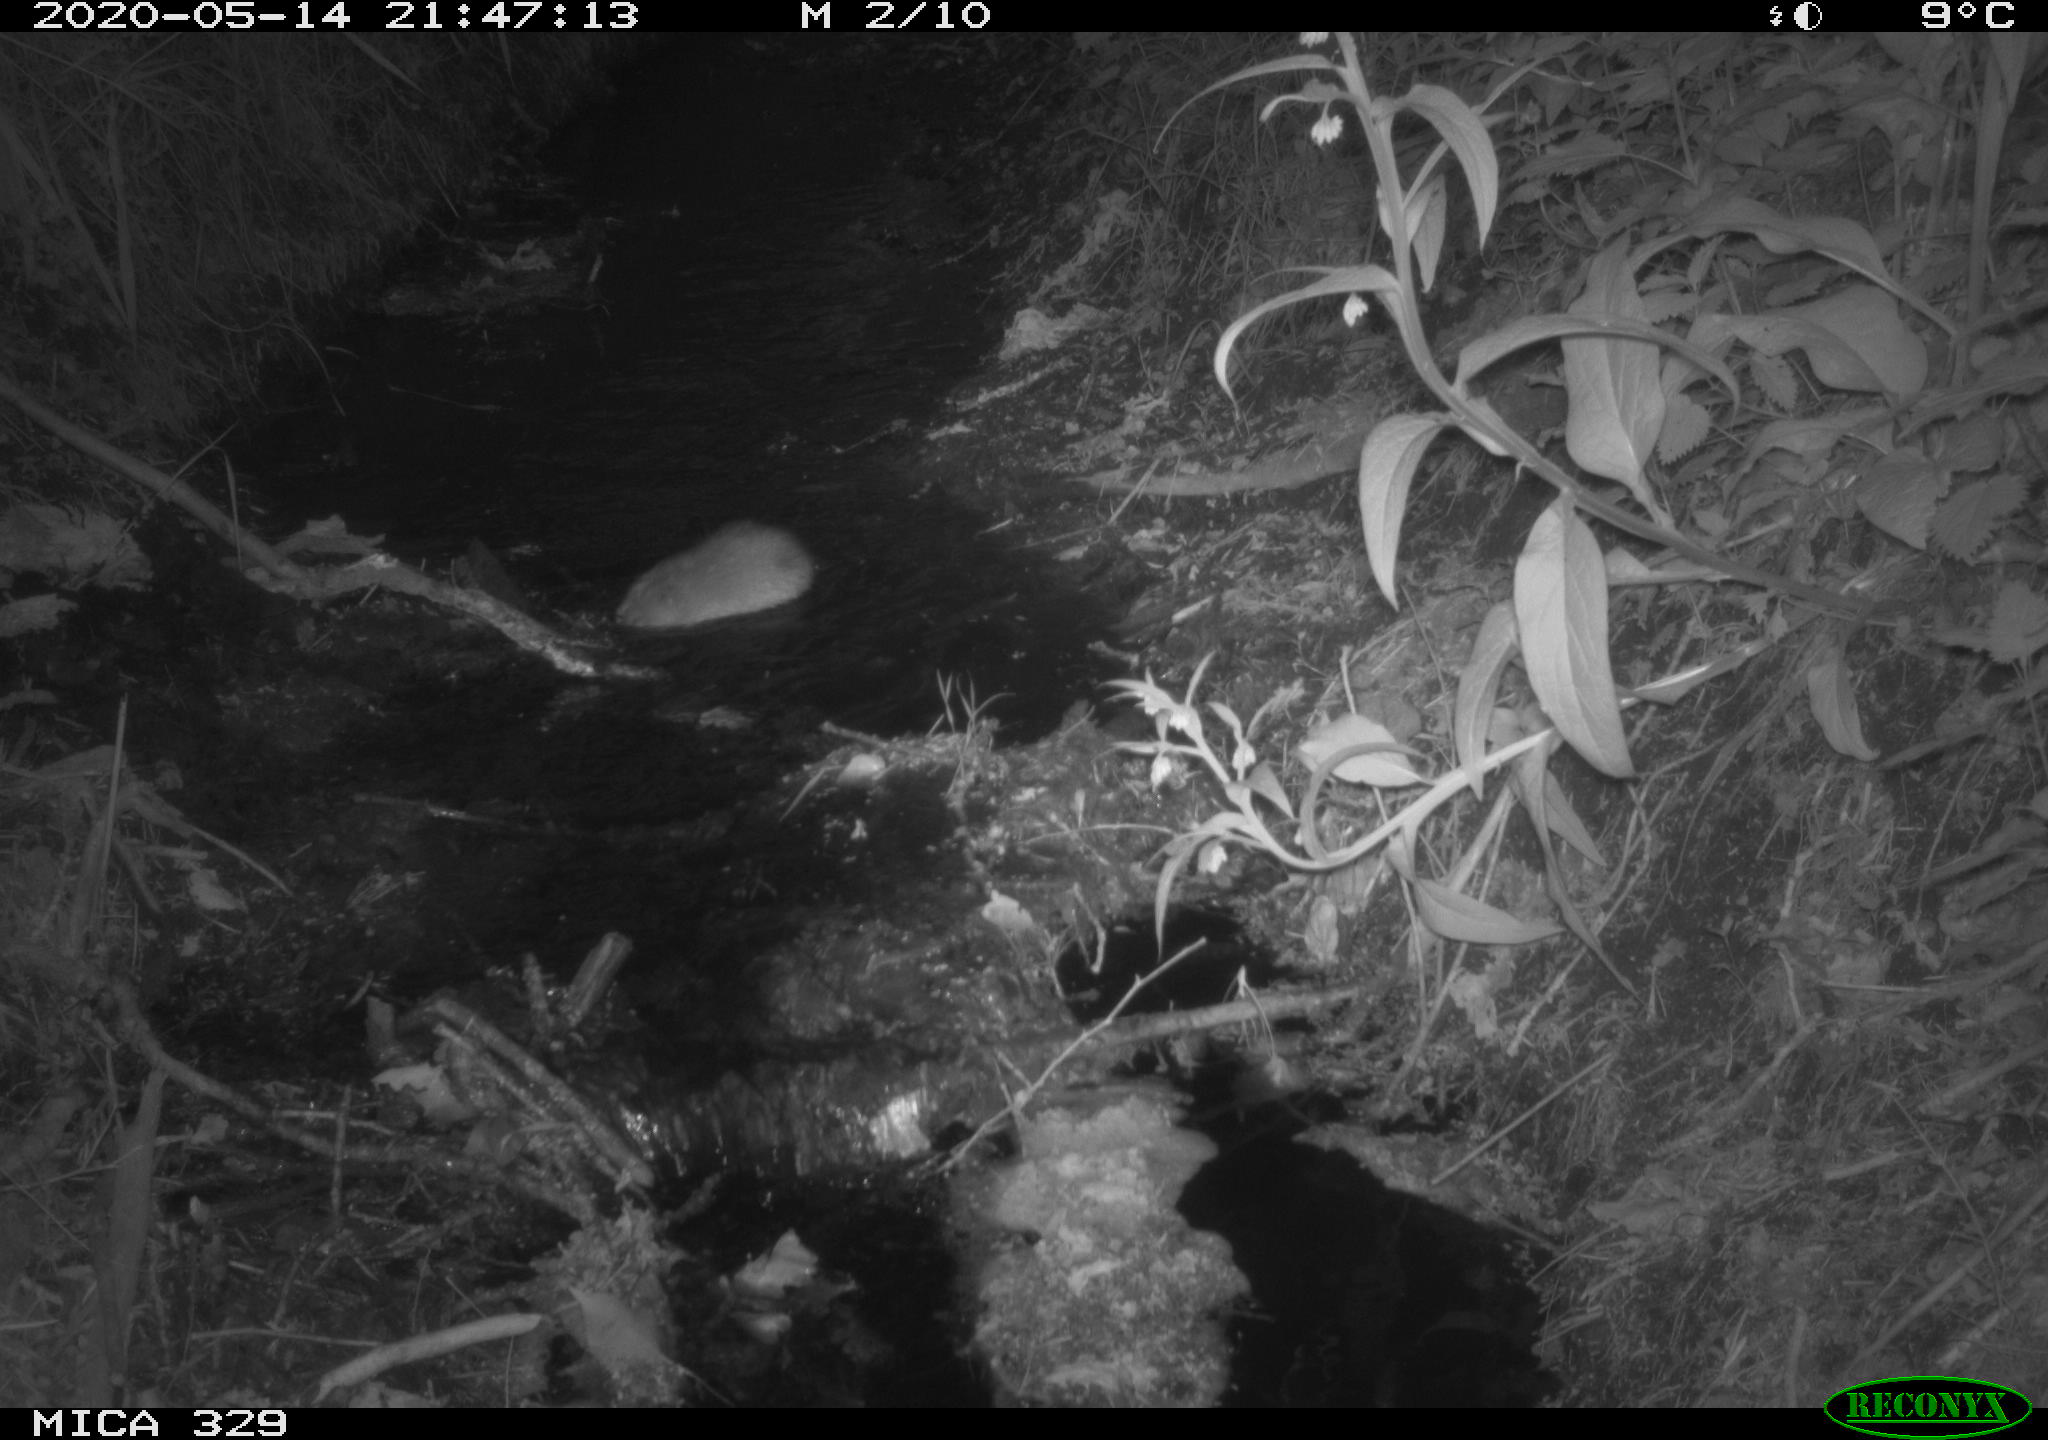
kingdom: Animalia
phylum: Chordata
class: Mammalia
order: Rodentia
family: Cricetidae
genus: Ondatra
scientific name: Ondatra zibethicus
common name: Muskrat
